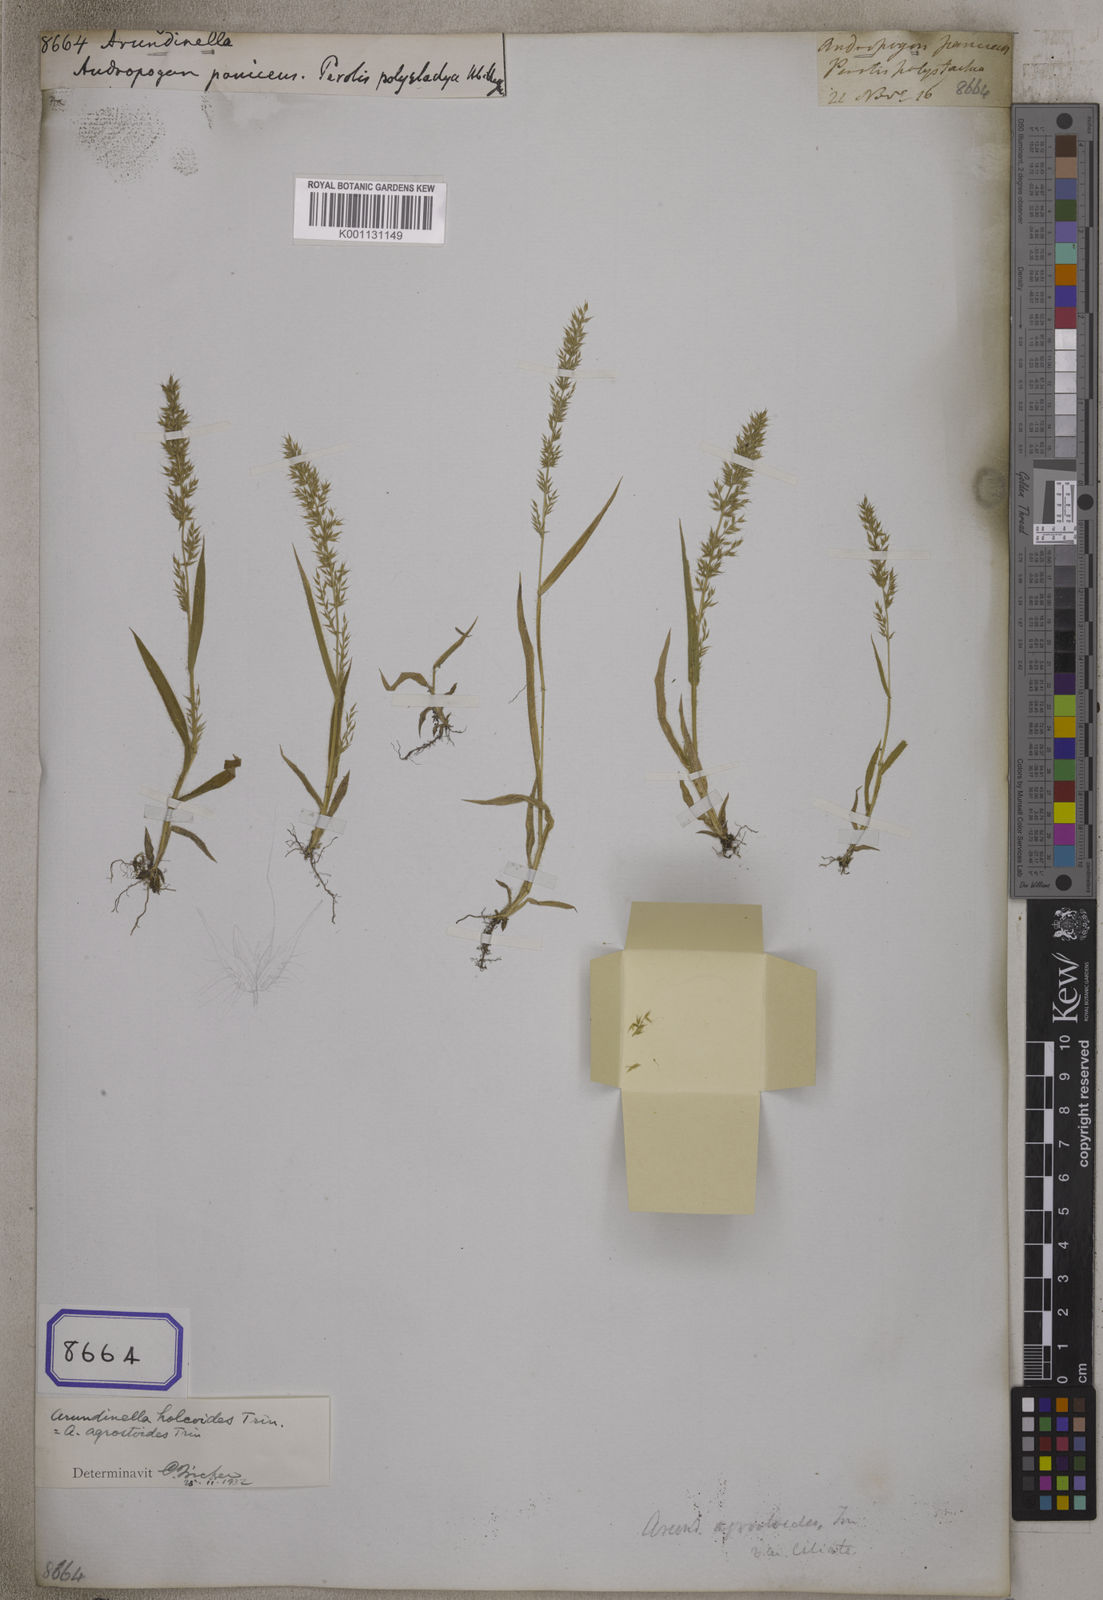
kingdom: Plantae
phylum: Tracheophyta
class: Liliopsida
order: Poales
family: Poaceae
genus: Arundinella
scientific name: Arundinella
